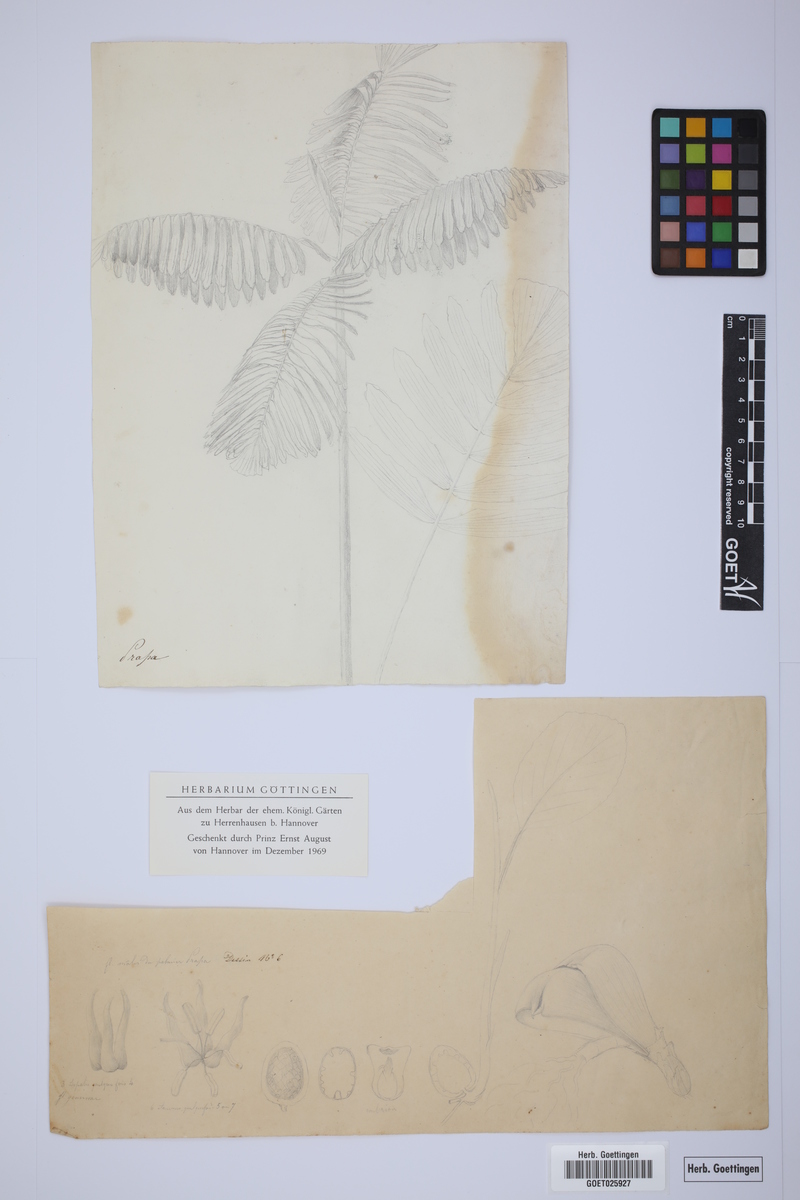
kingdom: Plantae
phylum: Tracheophyta
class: Liliopsida
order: Arecales
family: Arecaceae
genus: Wettinia
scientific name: Wettinia praemorsa
